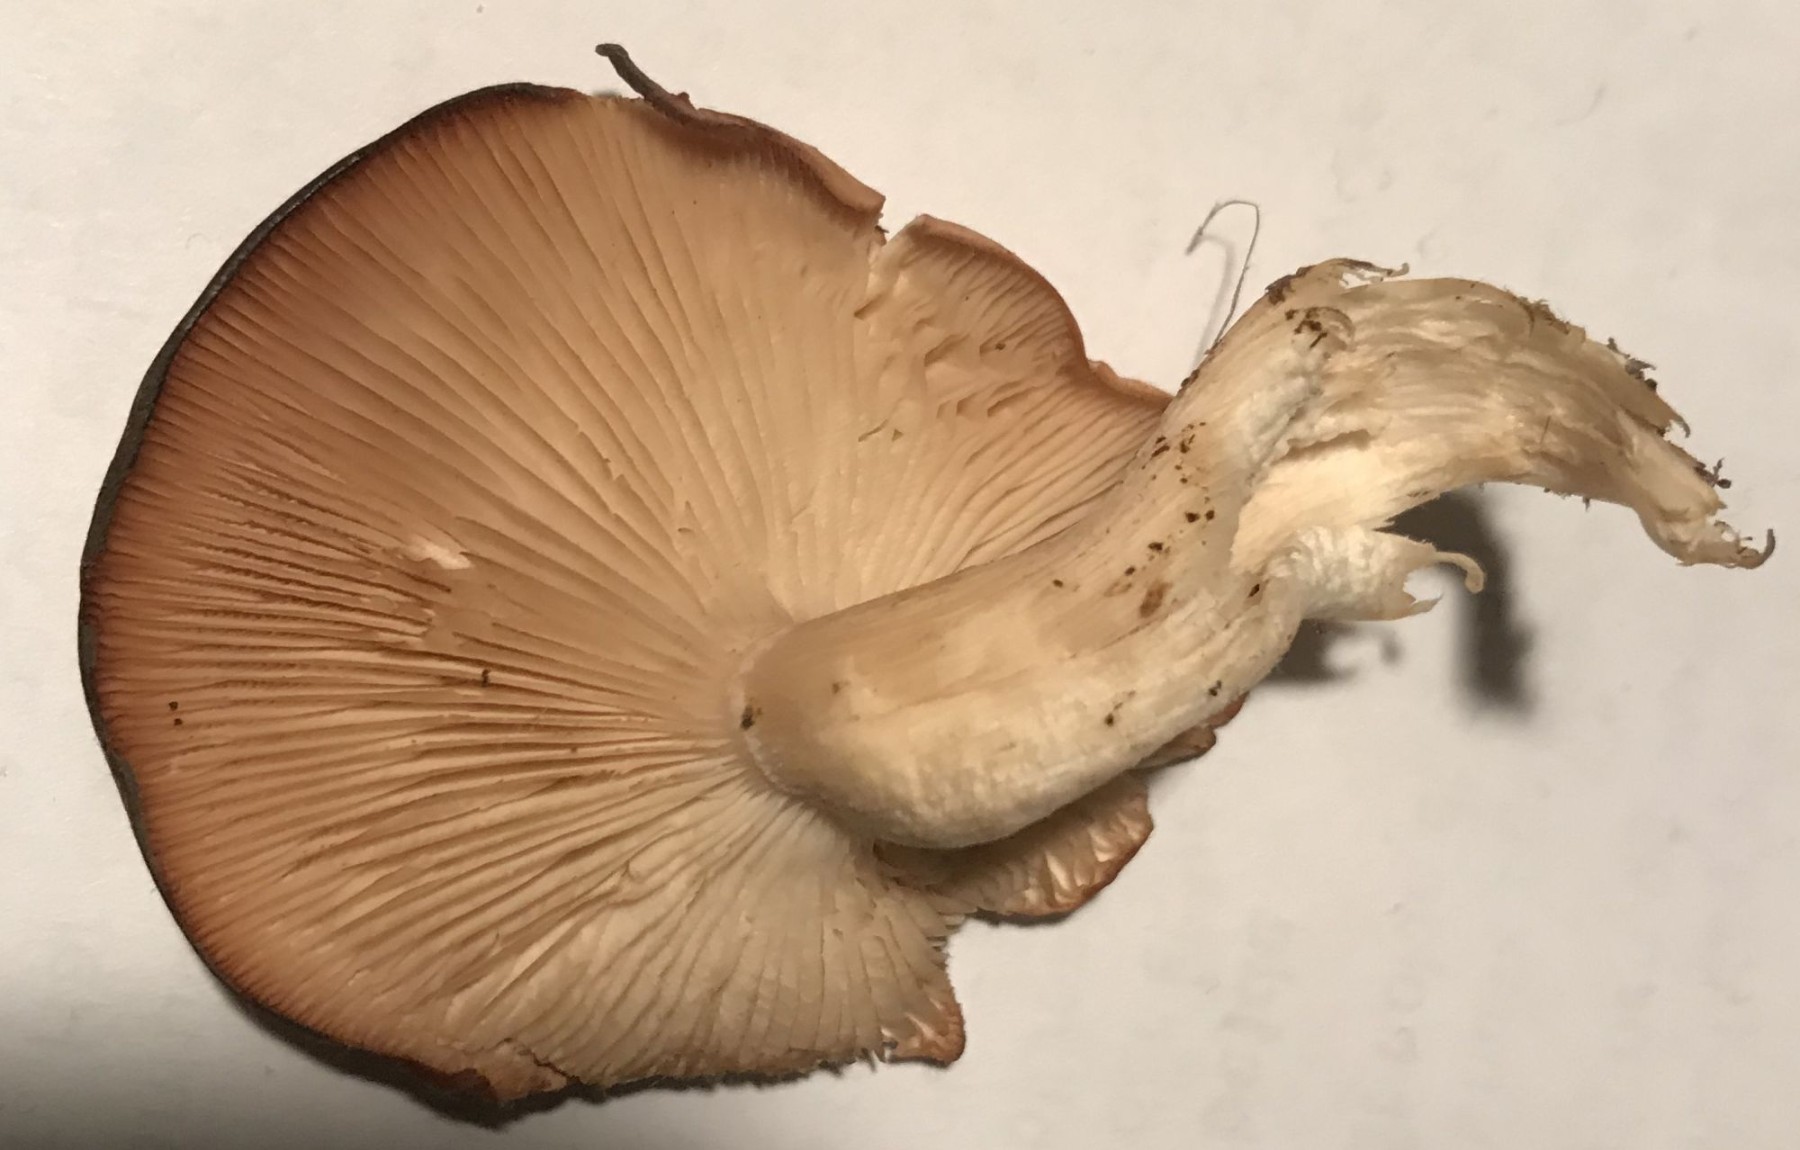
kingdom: Fungi
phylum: Basidiomycota
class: Agaricomycetes
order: Agaricales
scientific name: Agaricales
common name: champignonordenen
